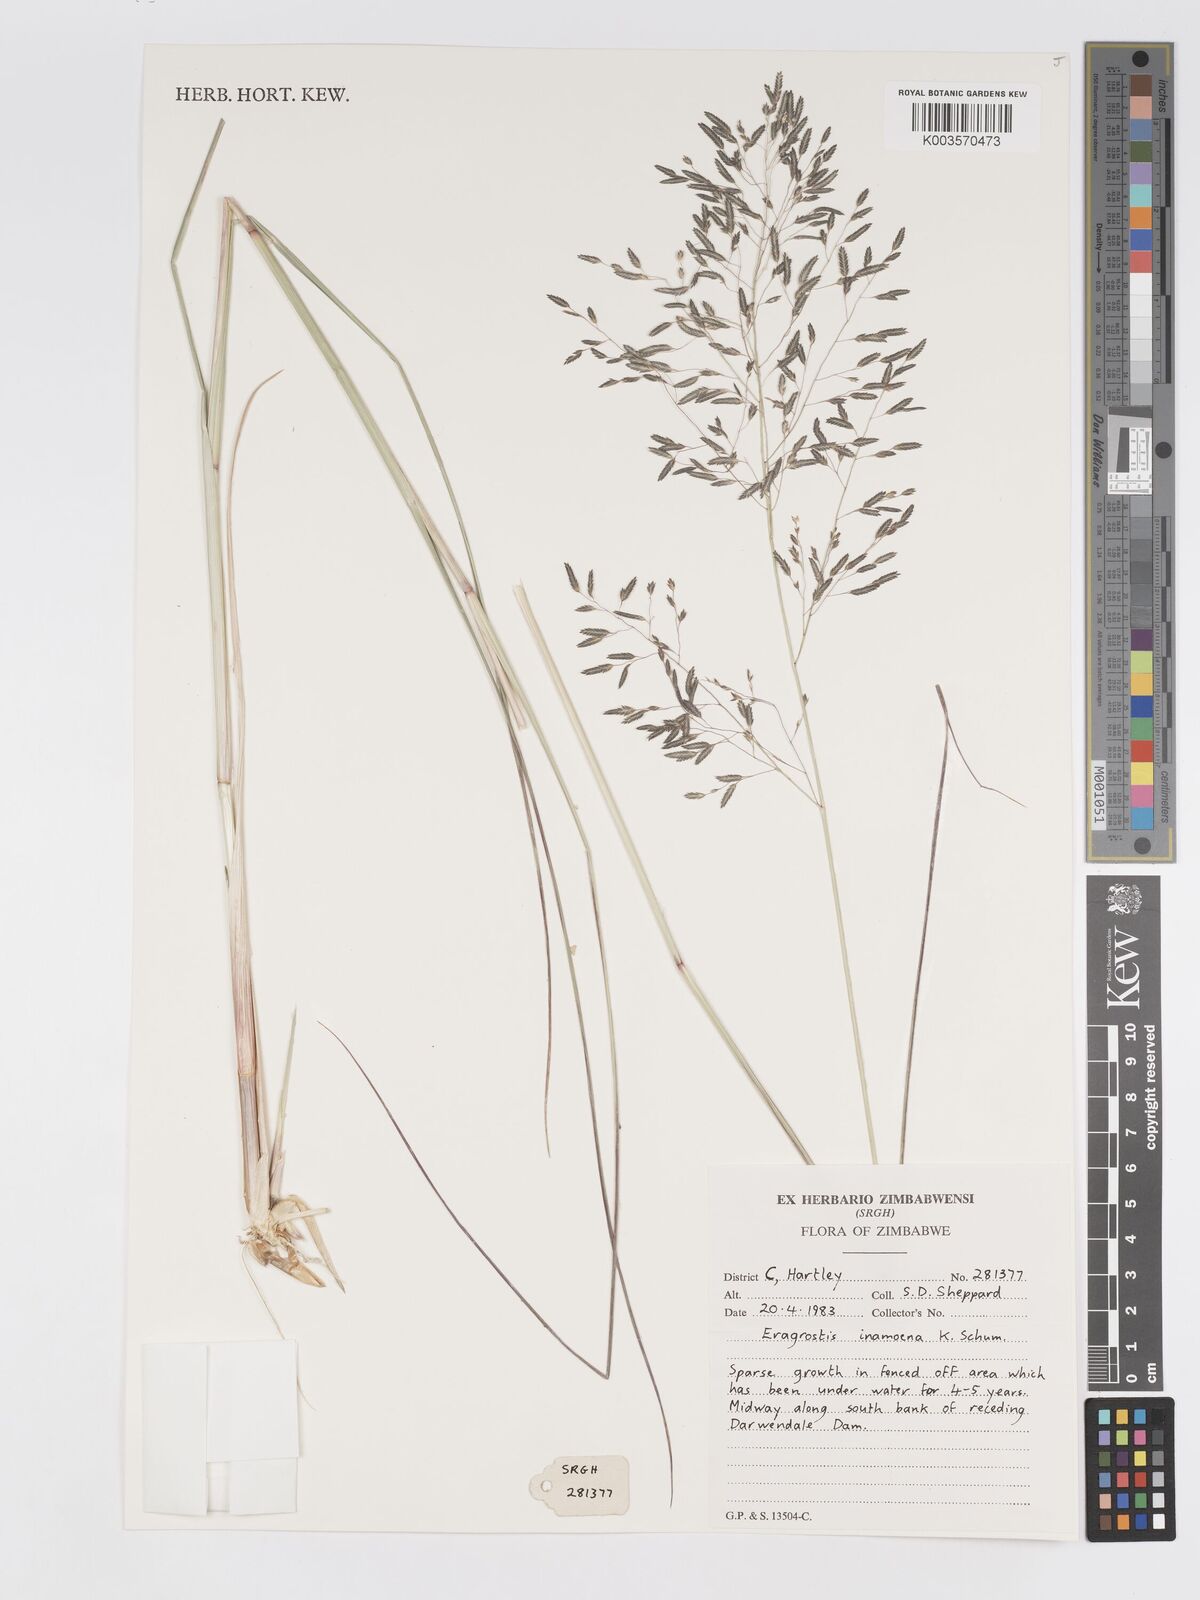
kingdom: Plantae
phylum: Tracheophyta
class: Liliopsida
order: Poales
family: Poaceae
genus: Eragrostis
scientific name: Eragrostis inamoena
